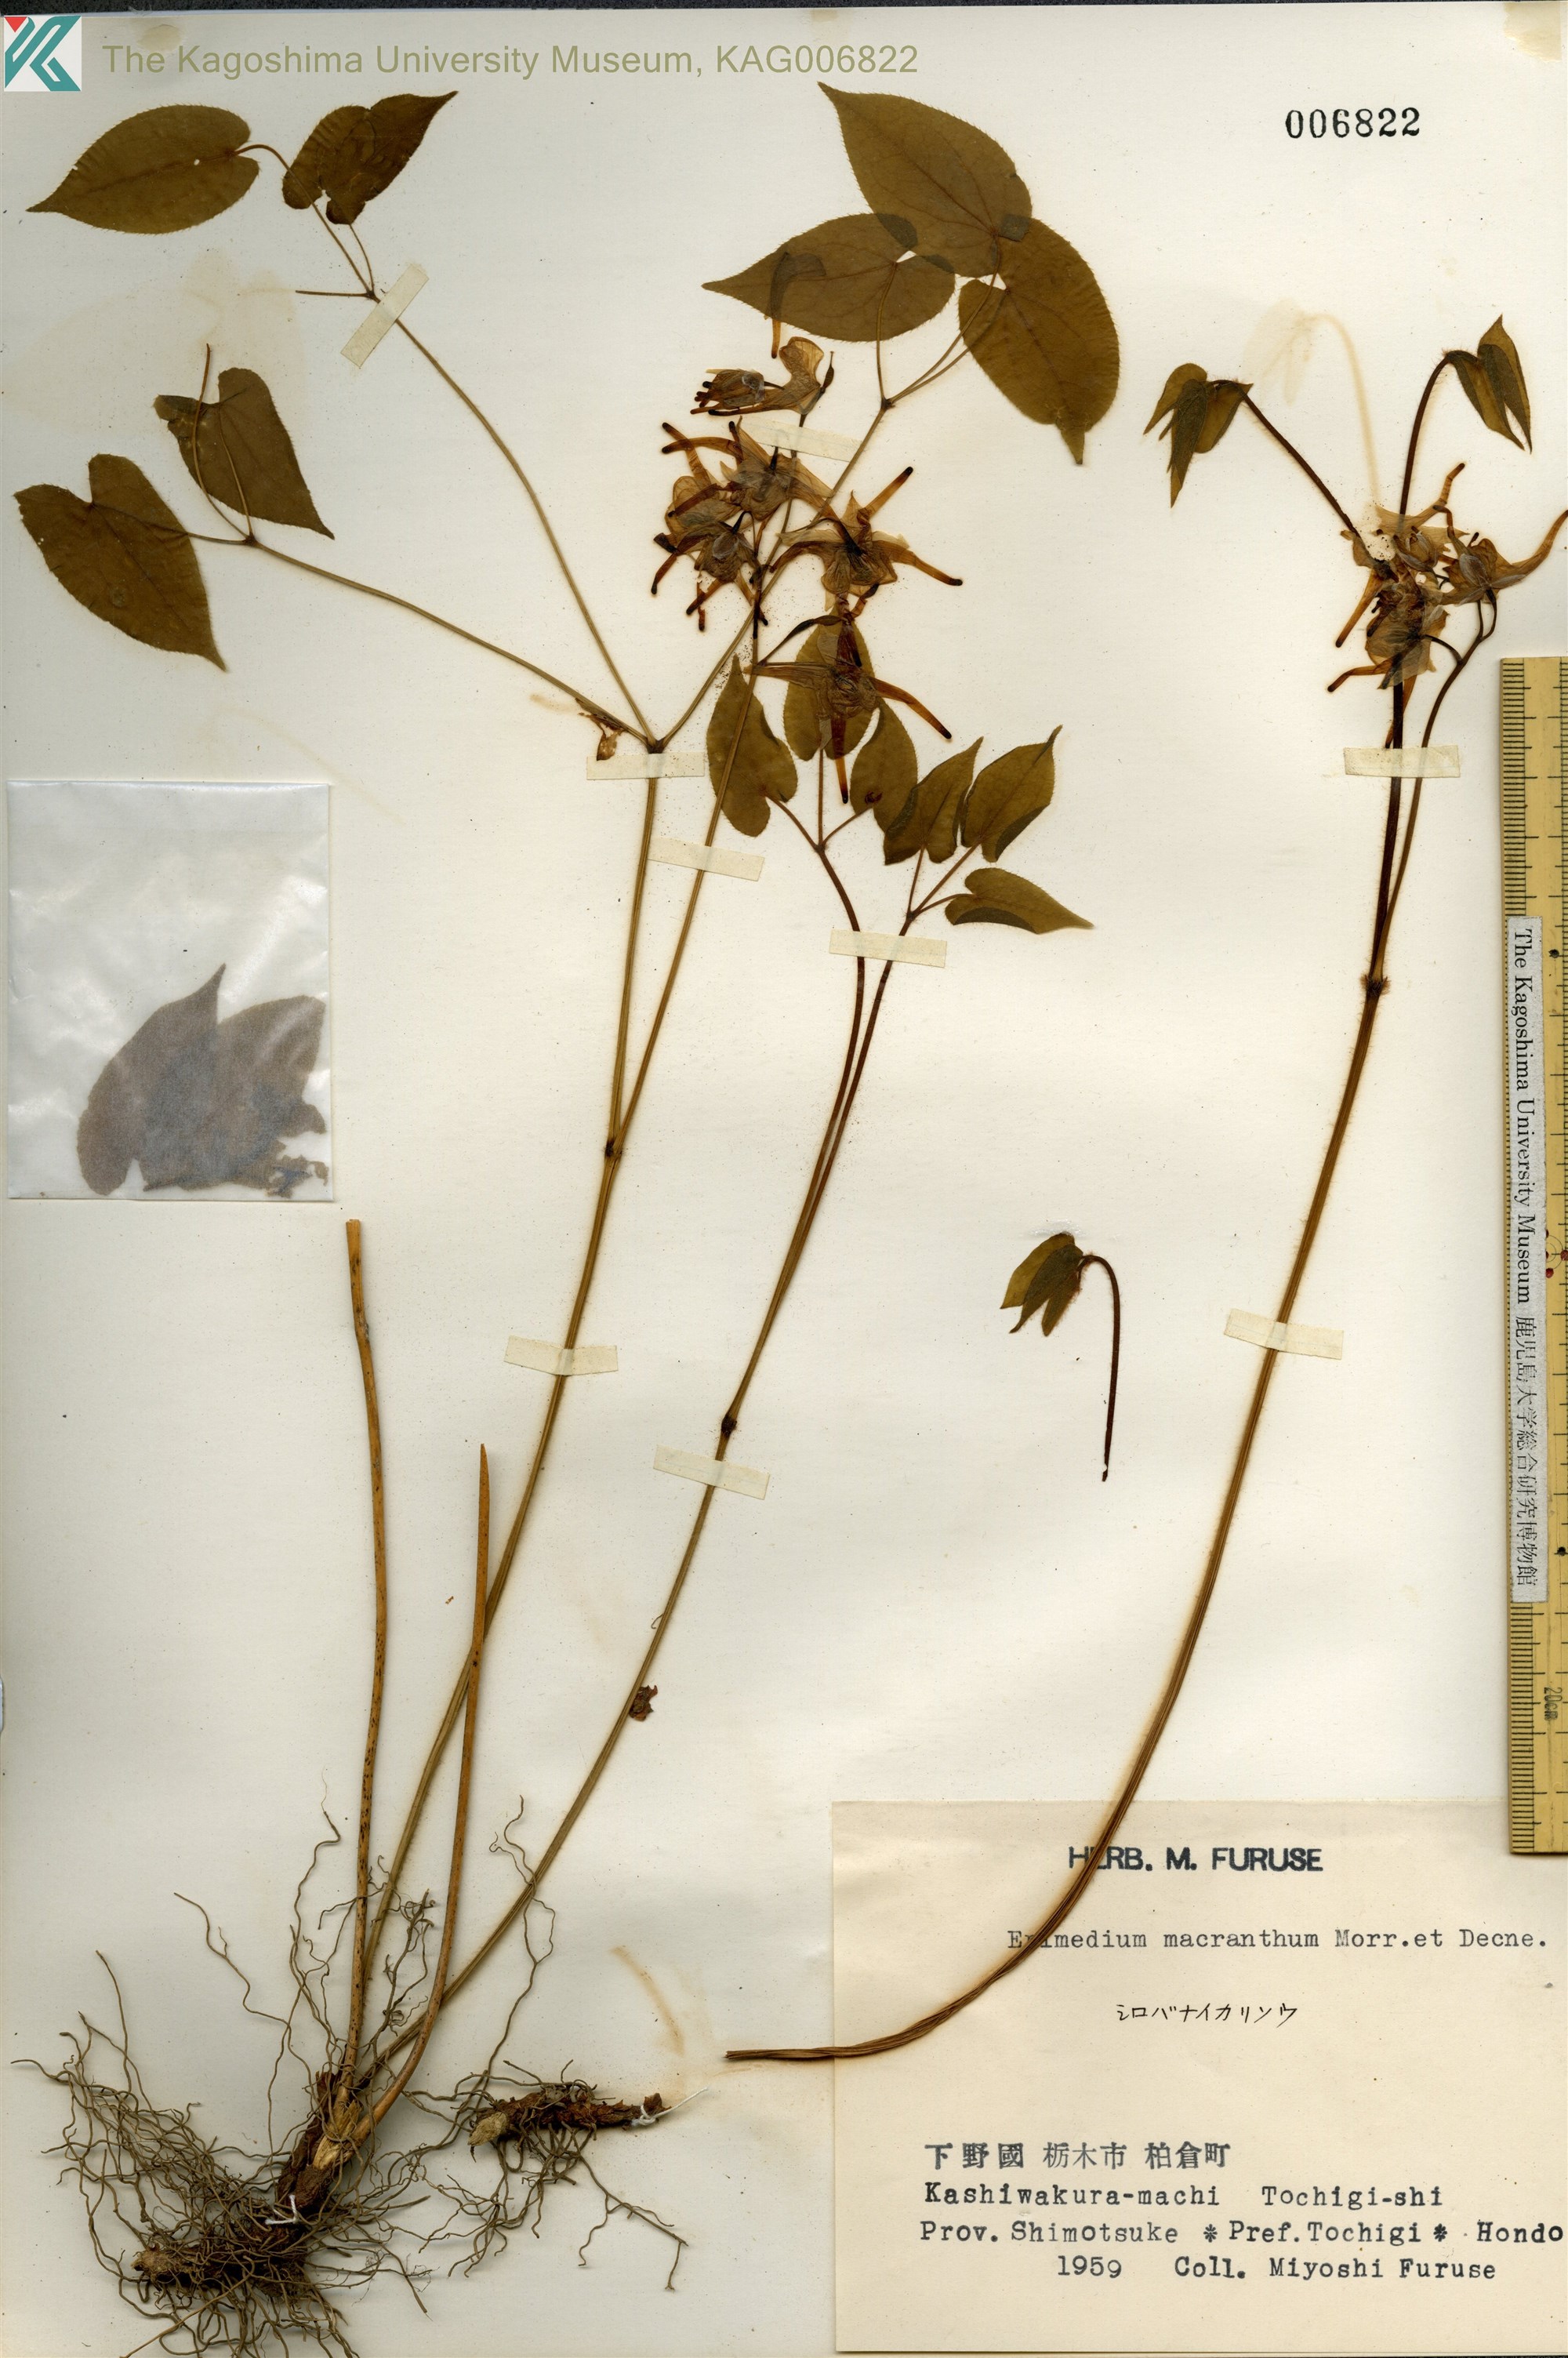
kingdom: Plantae
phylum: Tracheophyta
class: Magnoliopsida
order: Ranunculales
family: Berberidaceae
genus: Epimedium
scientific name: Epimedium grandiflorum
